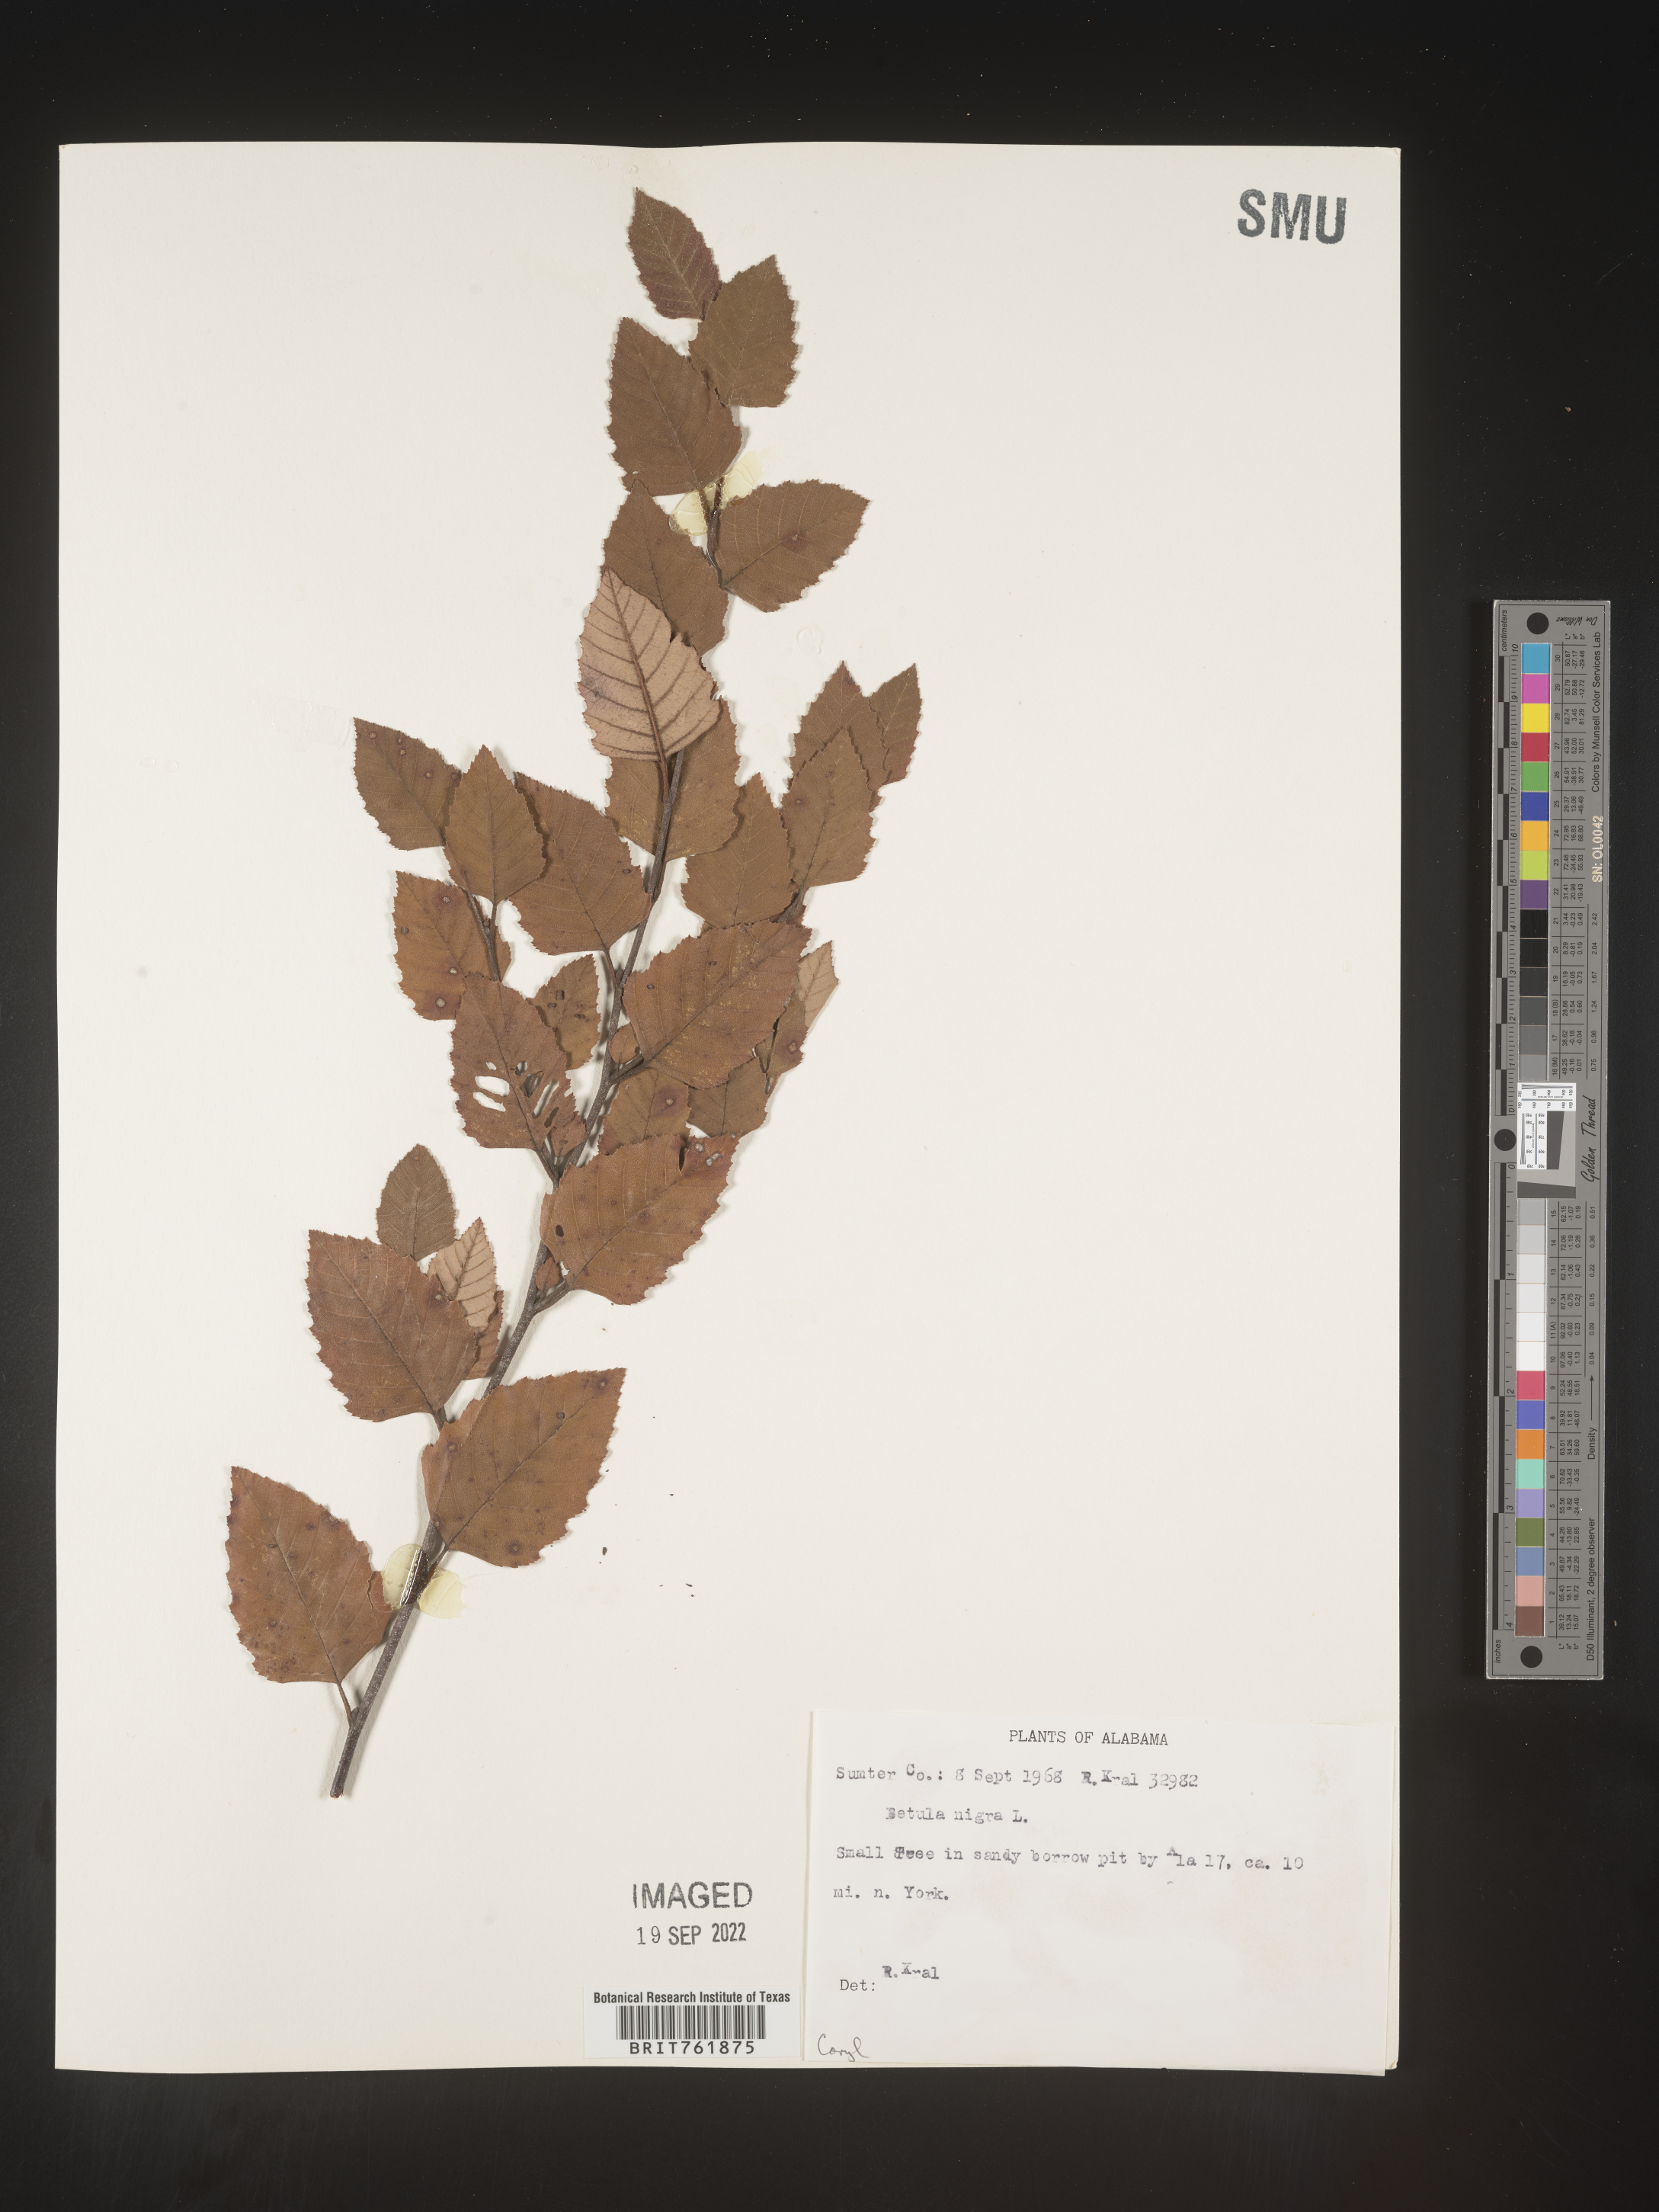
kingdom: Plantae
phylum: Tracheophyta
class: Magnoliopsida
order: Fagales
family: Betulaceae
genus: Betula
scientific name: Betula nigra
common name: Black birch
